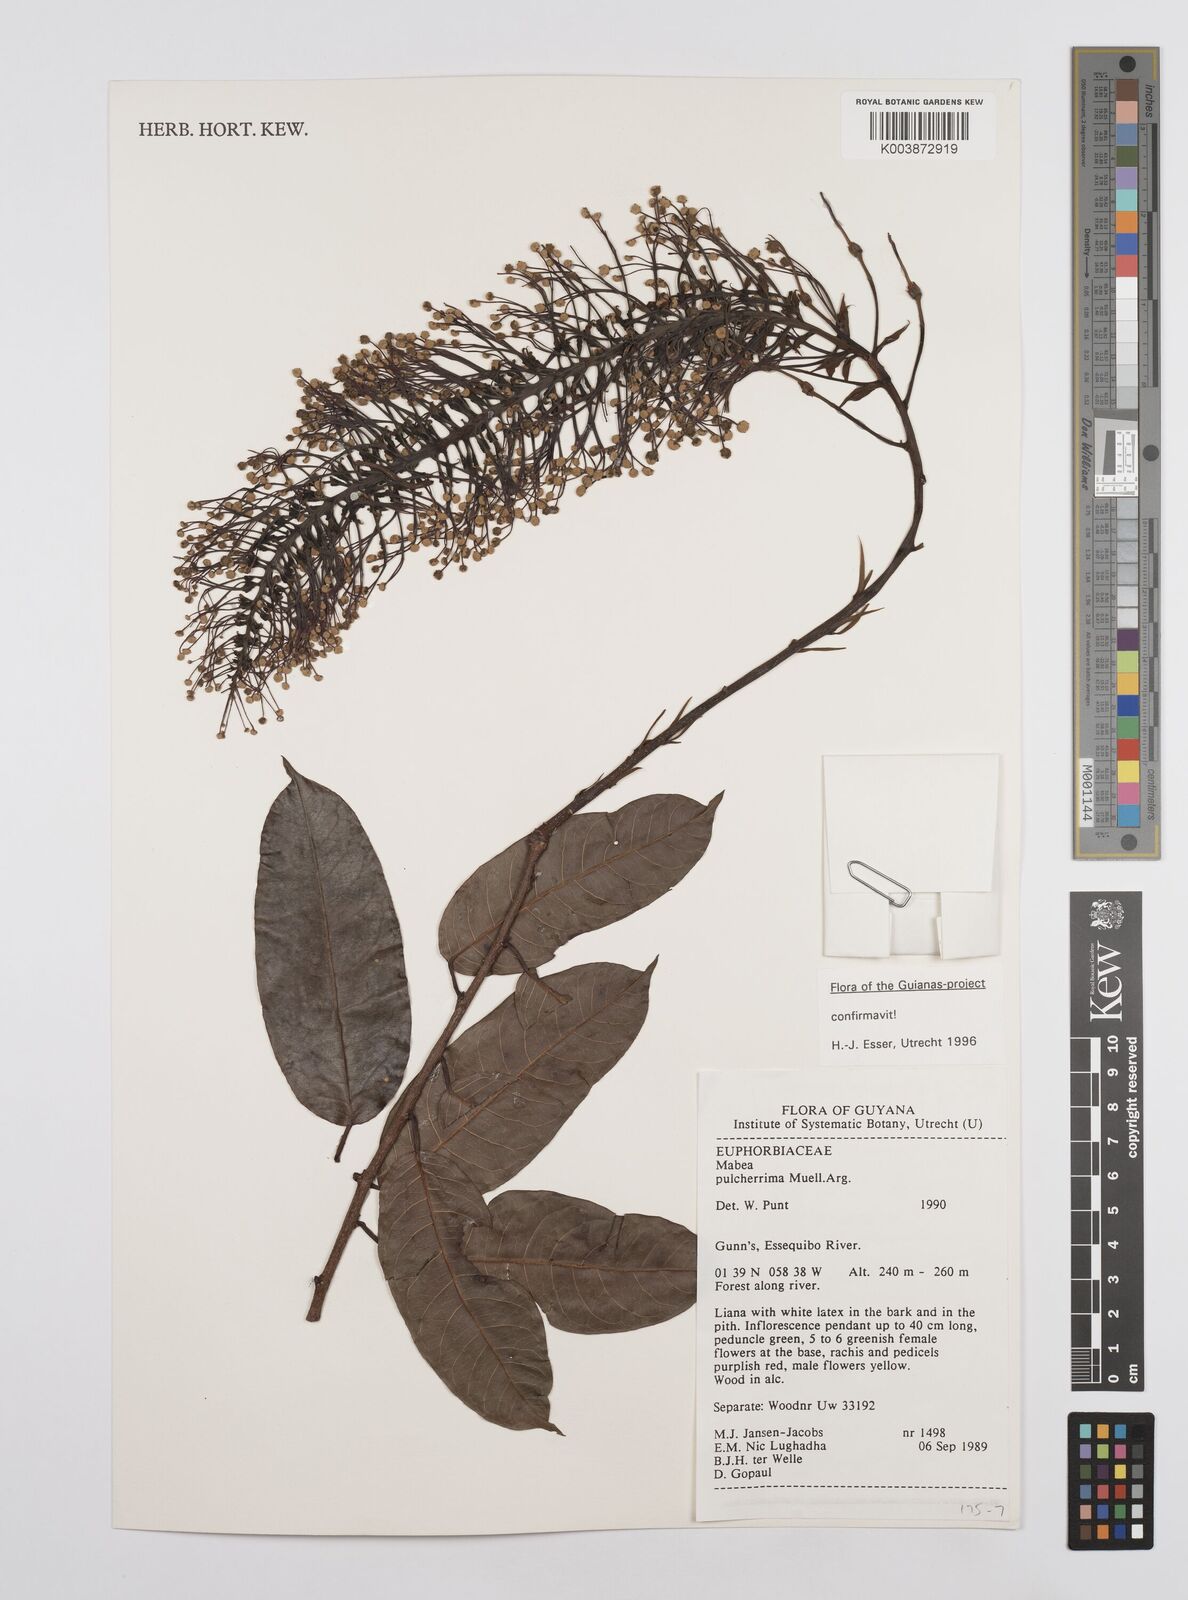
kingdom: Plantae
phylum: Tracheophyta
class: Magnoliopsida
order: Malpighiales
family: Euphorbiaceae
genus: Mabea
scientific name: Mabea pulcherrima
